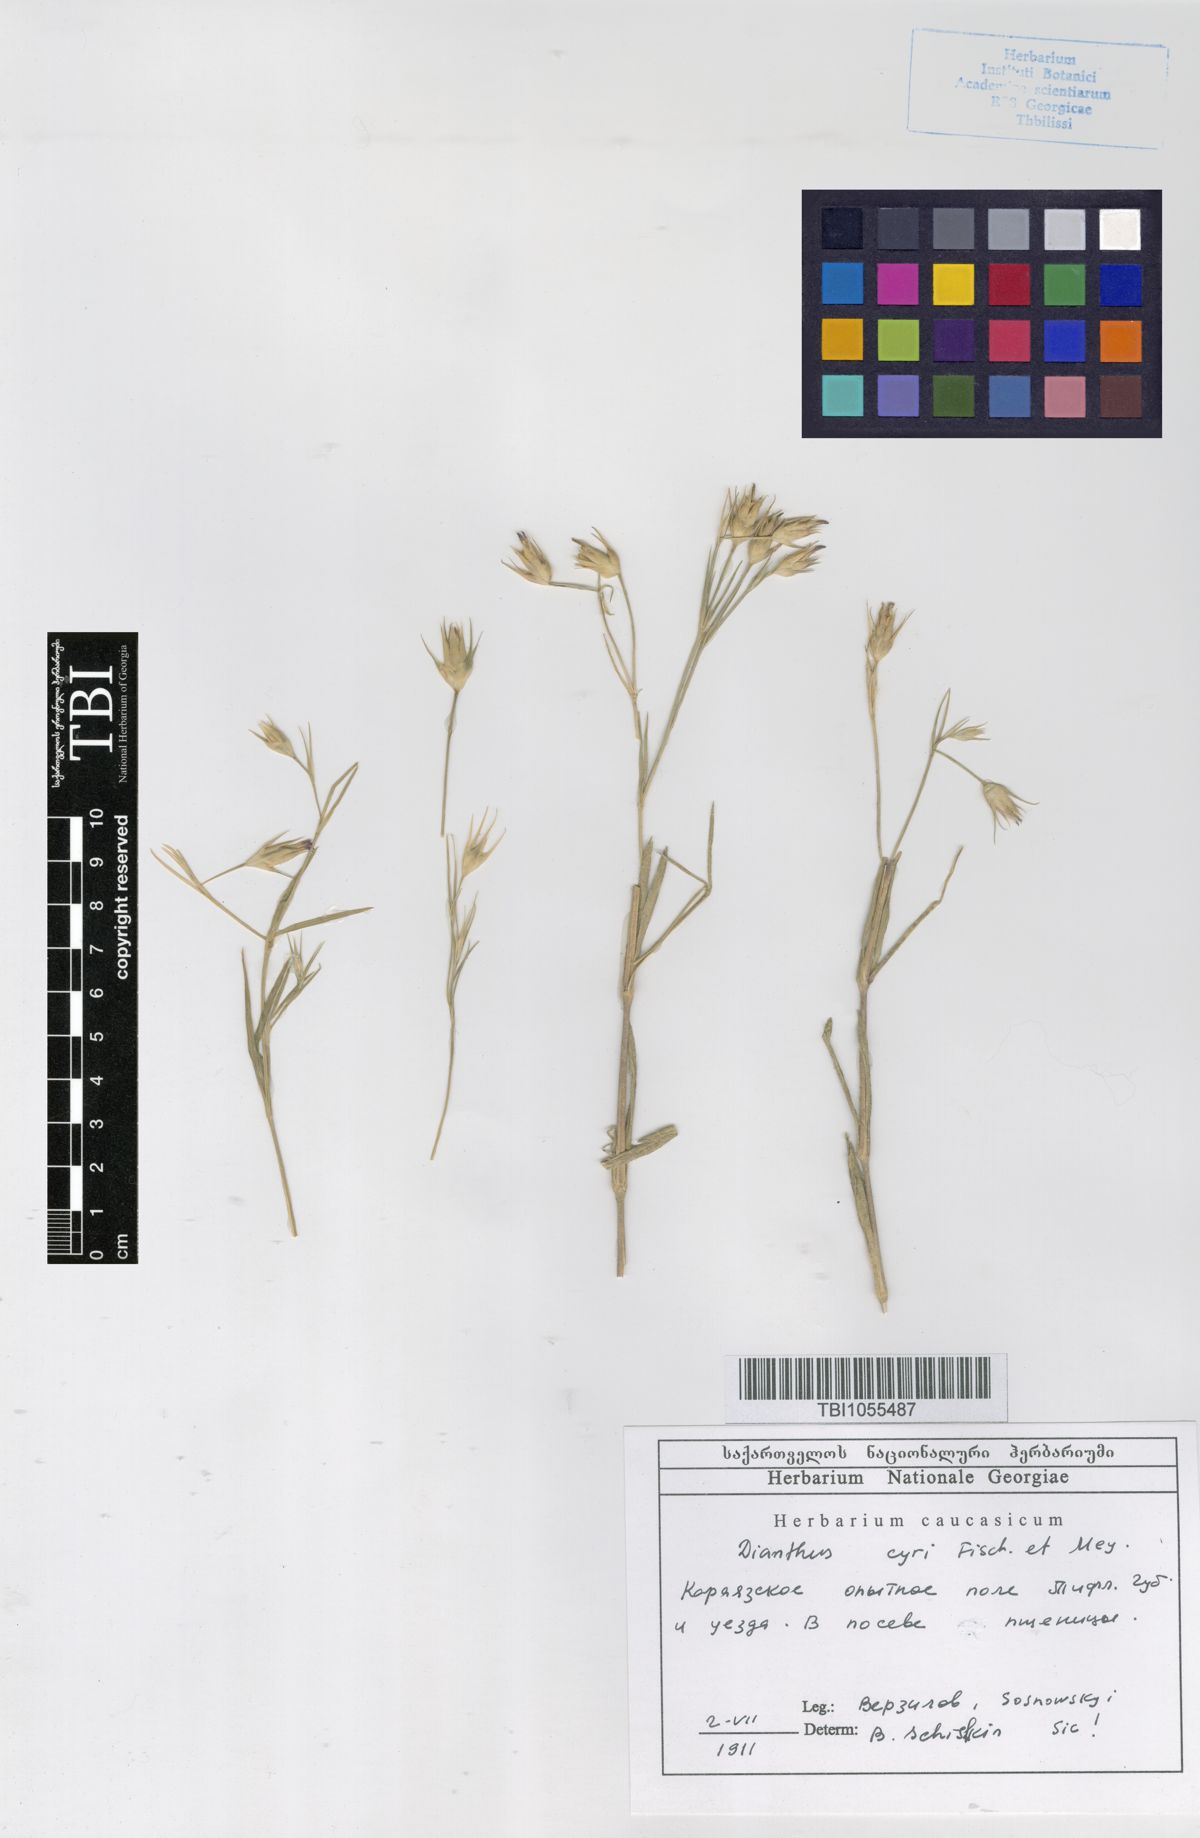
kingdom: Plantae
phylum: Tracheophyta
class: Magnoliopsida
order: Caryophyllales
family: Caryophyllaceae
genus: Dianthus
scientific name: Dianthus cyri
